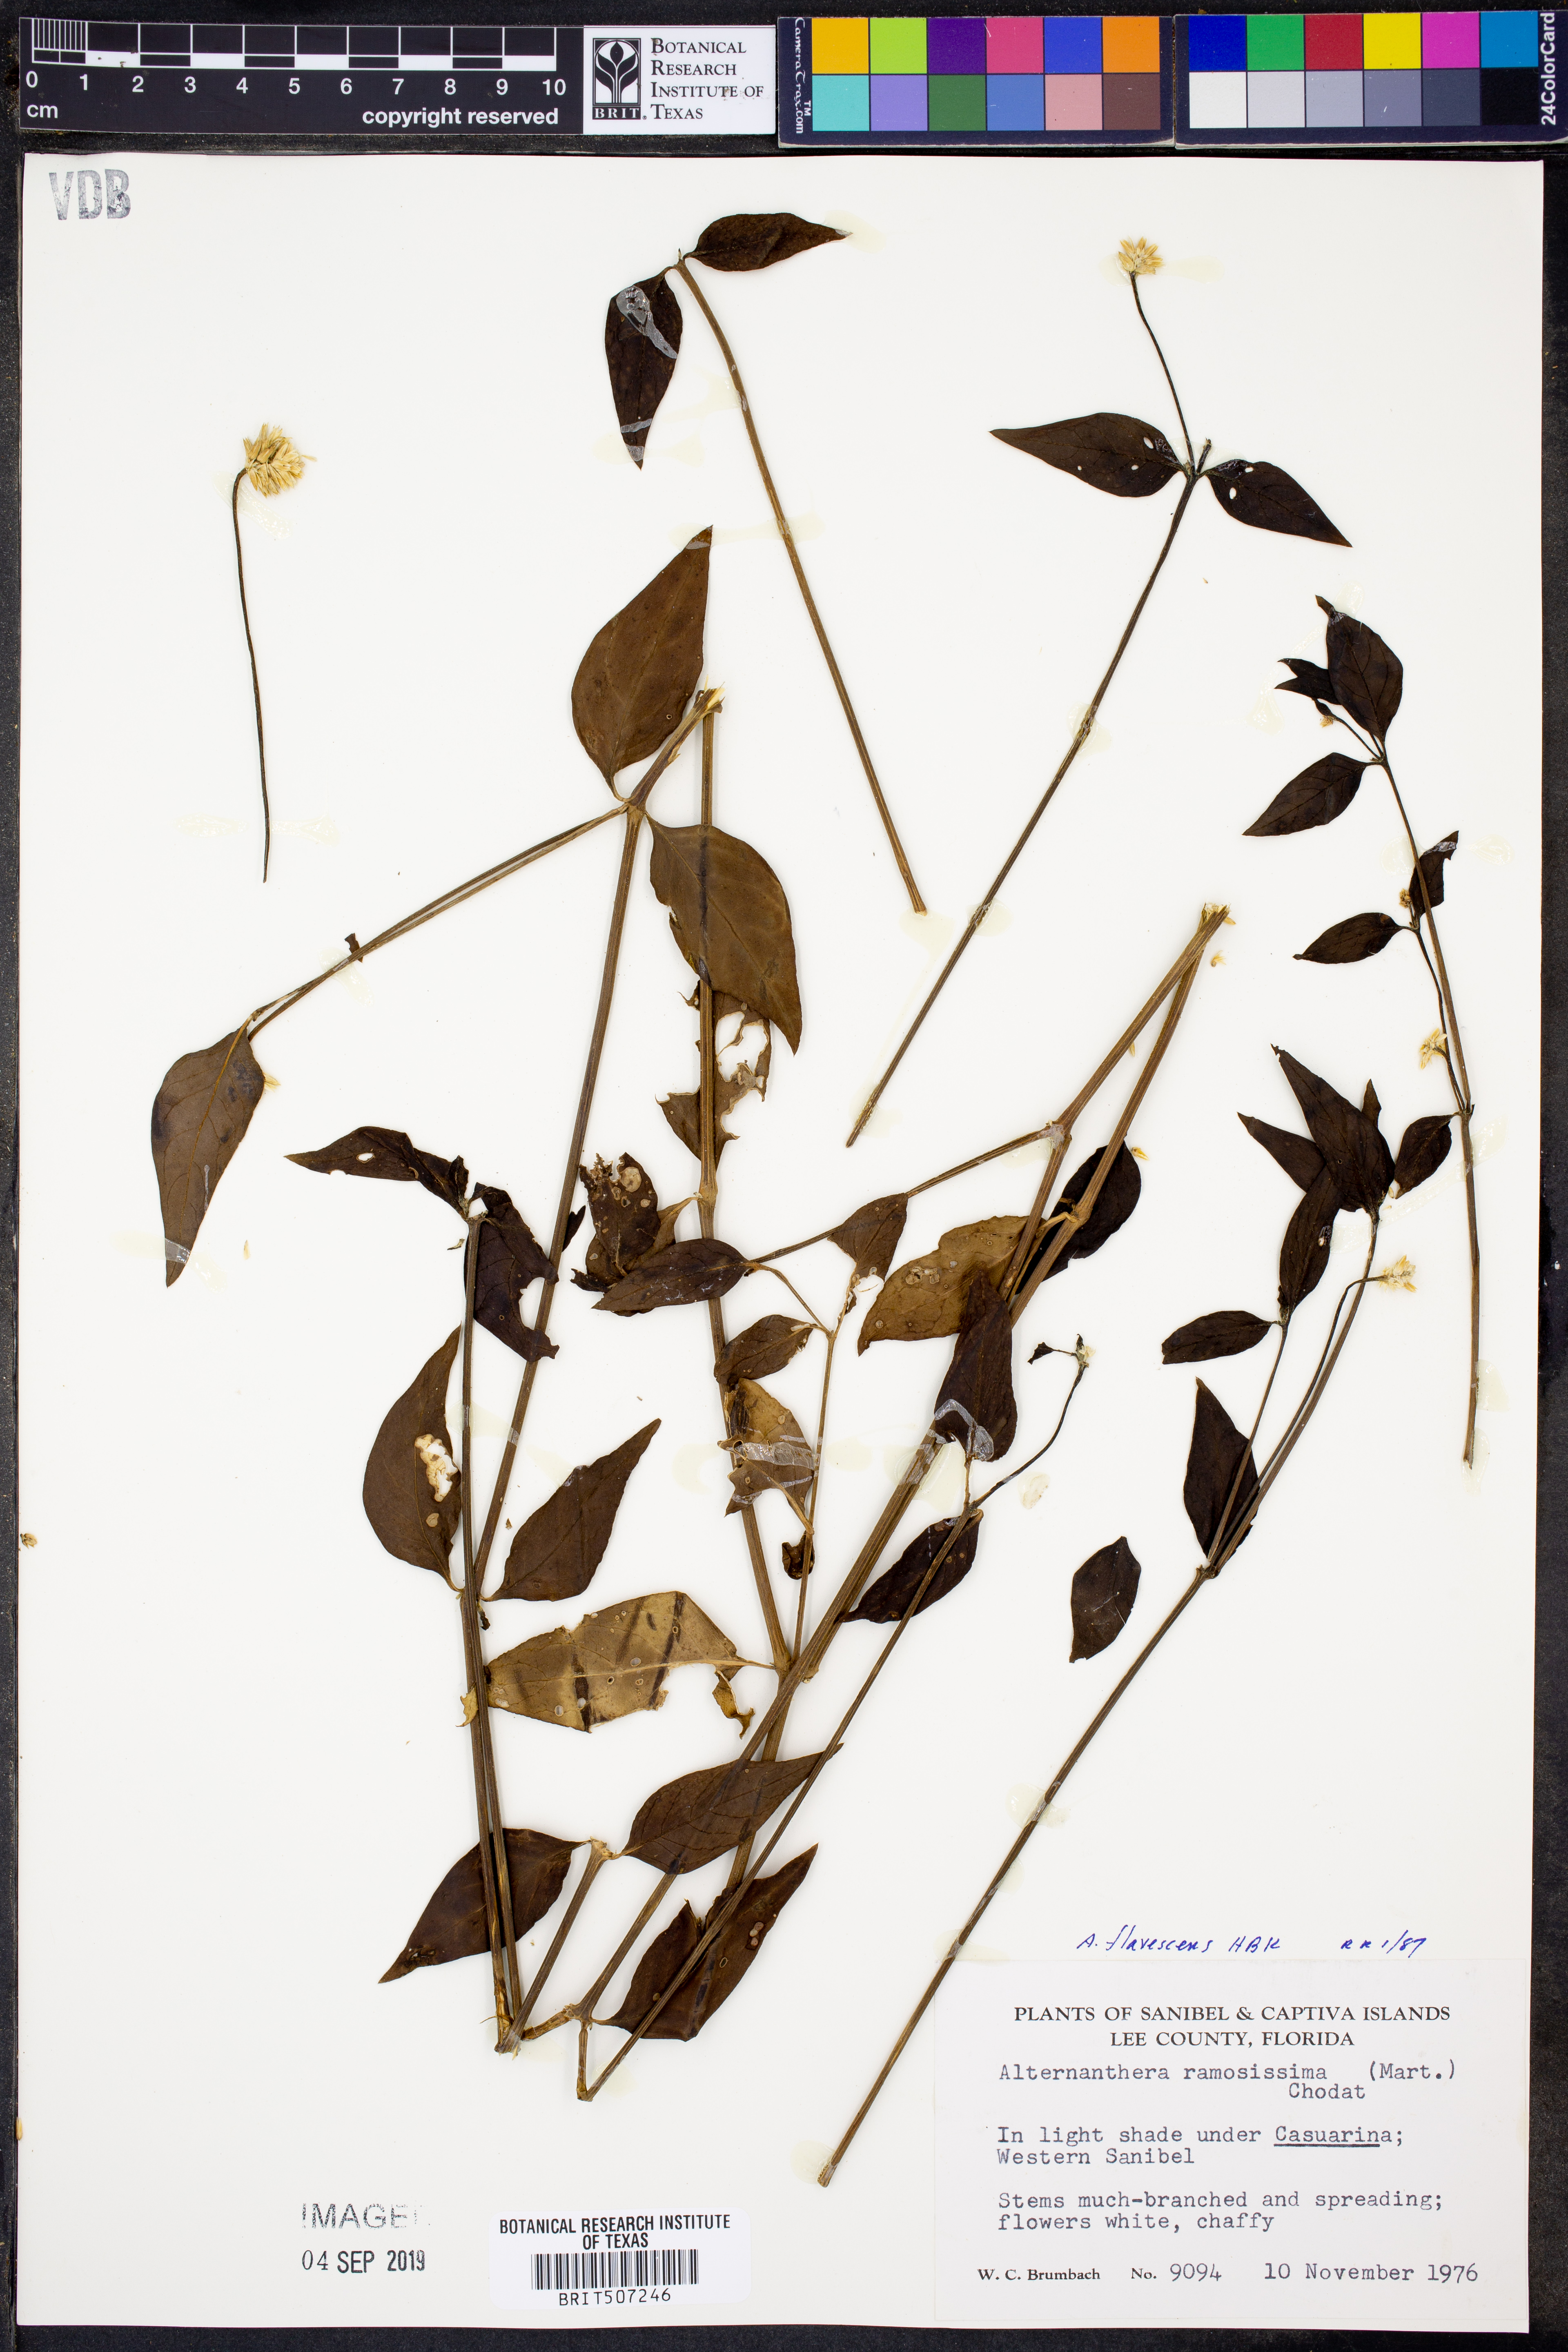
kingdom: Plantae
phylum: Tracheophyta
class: Magnoliopsida
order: Caryophyllales
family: Amaranthaceae
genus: Alternanthera
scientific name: Alternanthera ramosissima
